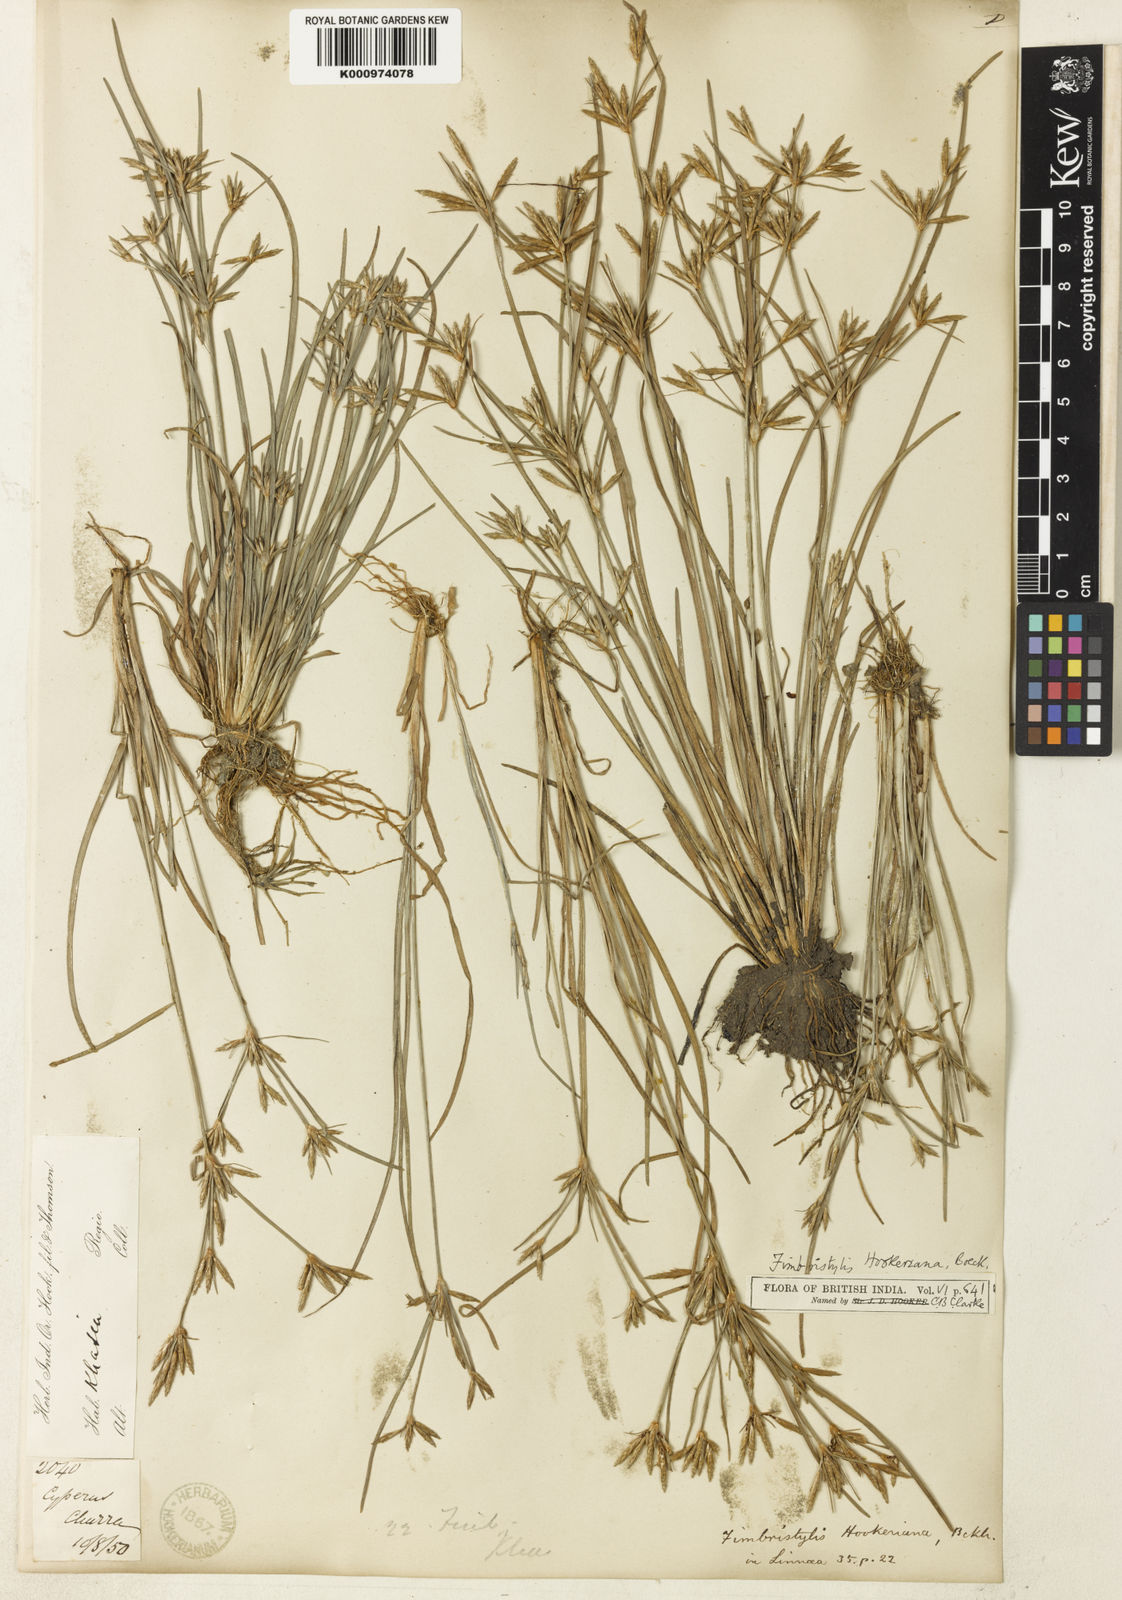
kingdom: Plantae
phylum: Tracheophyta
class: Liliopsida
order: Poales
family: Cyperaceae
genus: Fimbristylis
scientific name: Fimbristylis hookeriana
